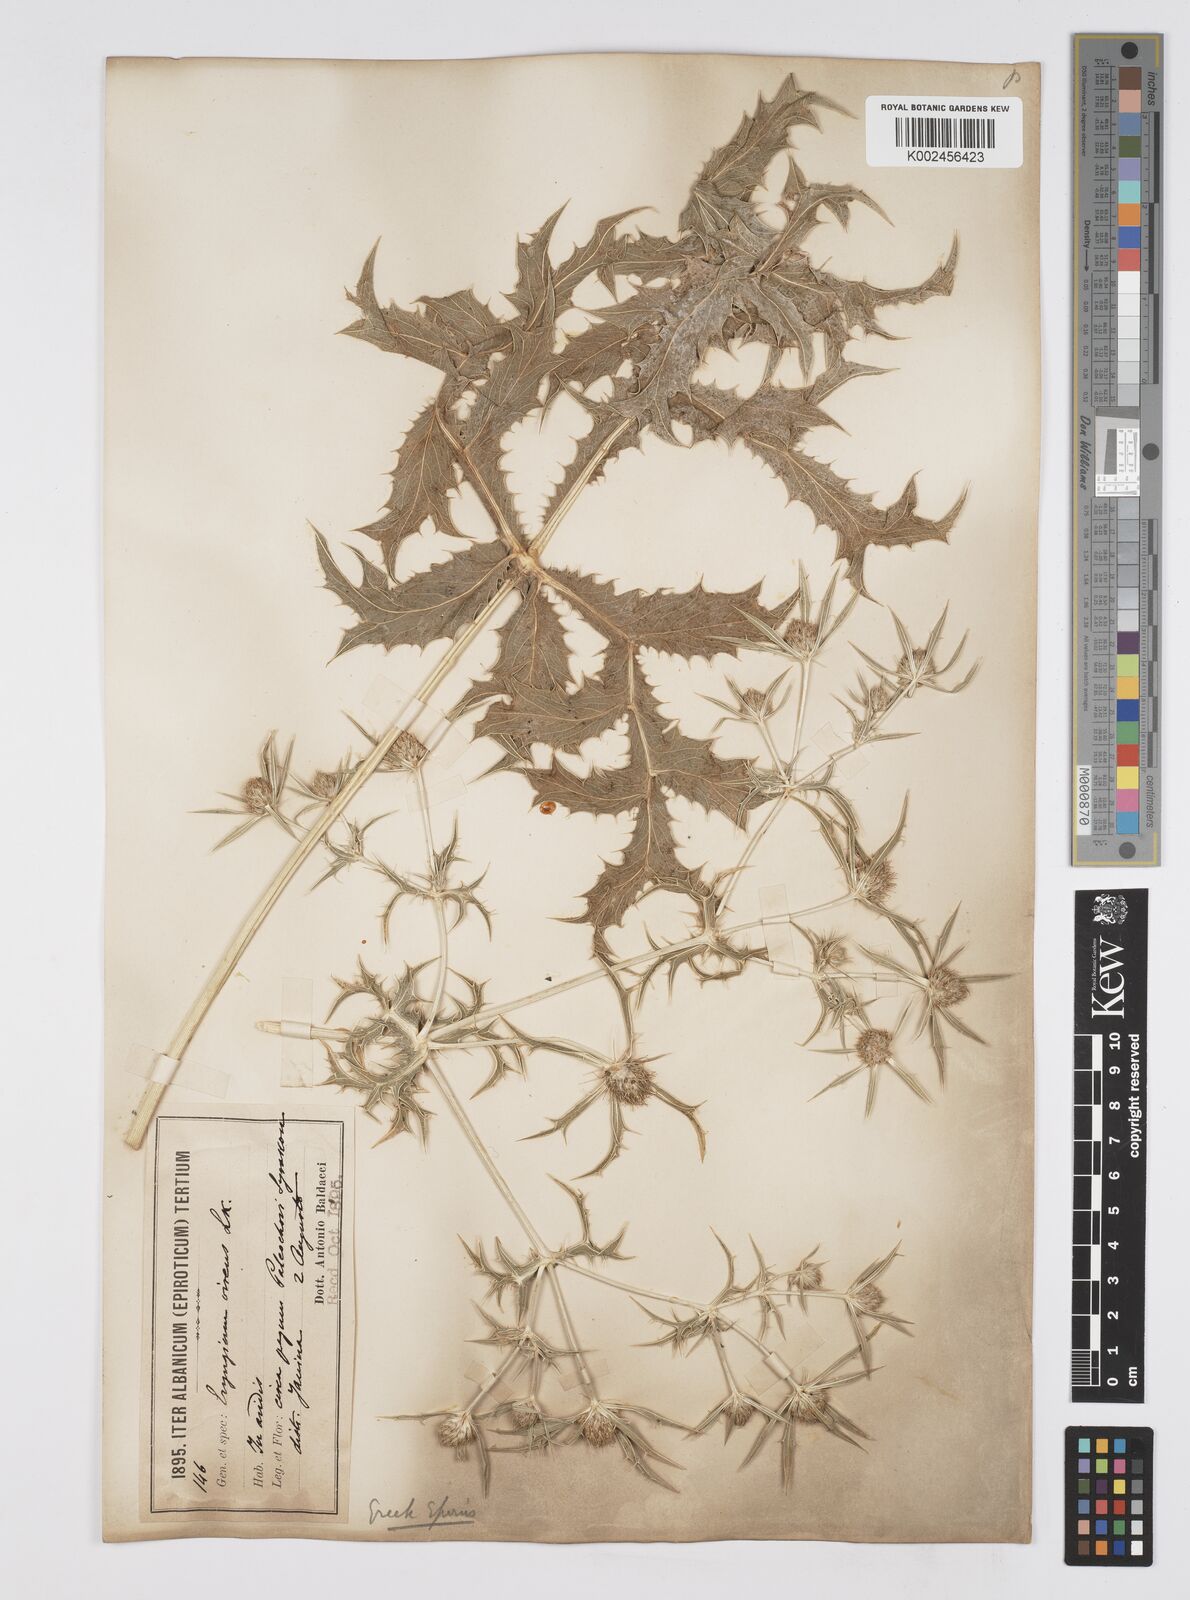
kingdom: Plantae
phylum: Tracheophyta
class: Magnoliopsida
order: Apiales
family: Apiaceae
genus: Eryngium
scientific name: Eryngium campestre
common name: Field eryngo
